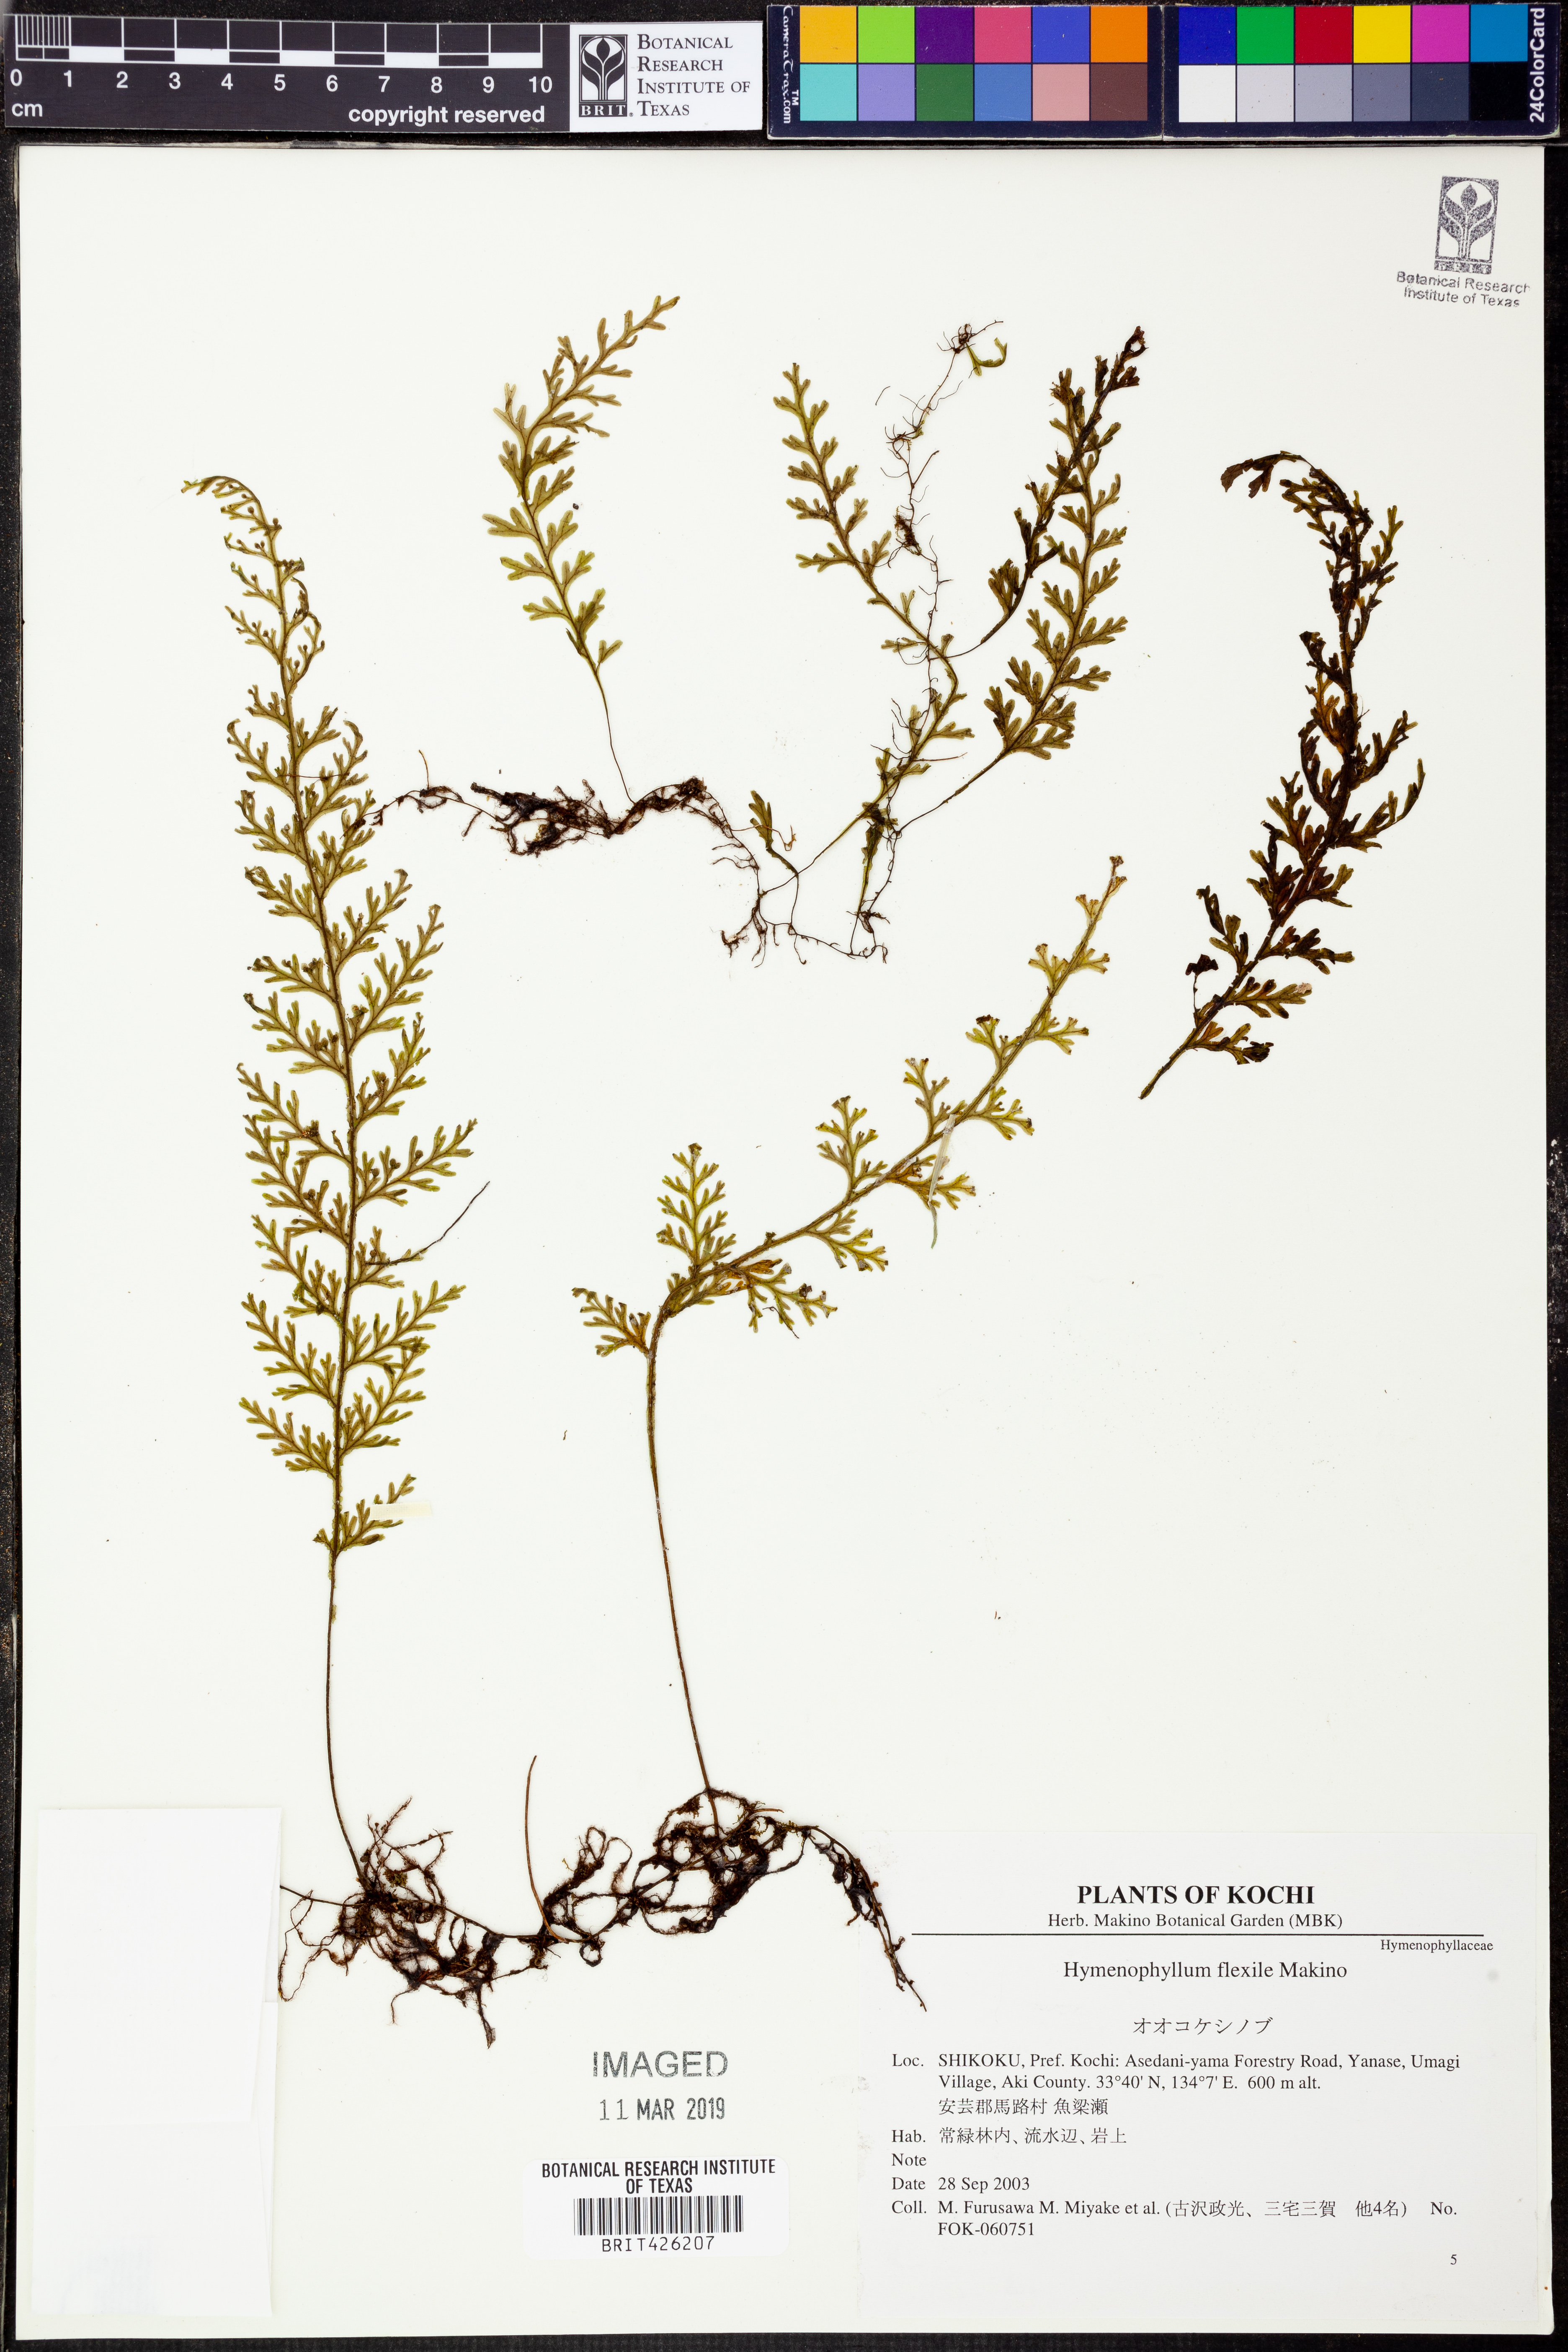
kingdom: Plantae
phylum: Tracheophyta
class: Polypodiopsida
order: Hymenophyllales
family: Hymenophyllaceae
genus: Hymenophyllum
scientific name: Hymenophyllum badium
